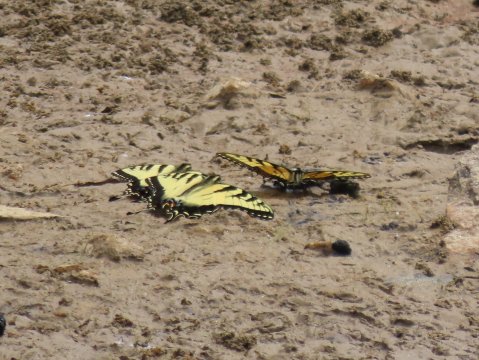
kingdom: Animalia
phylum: Arthropoda
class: Insecta
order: Lepidoptera
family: Papilionidae
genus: Pterourus
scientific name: Pterourus glaucus
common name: Eastern Tiger Swallowtail
